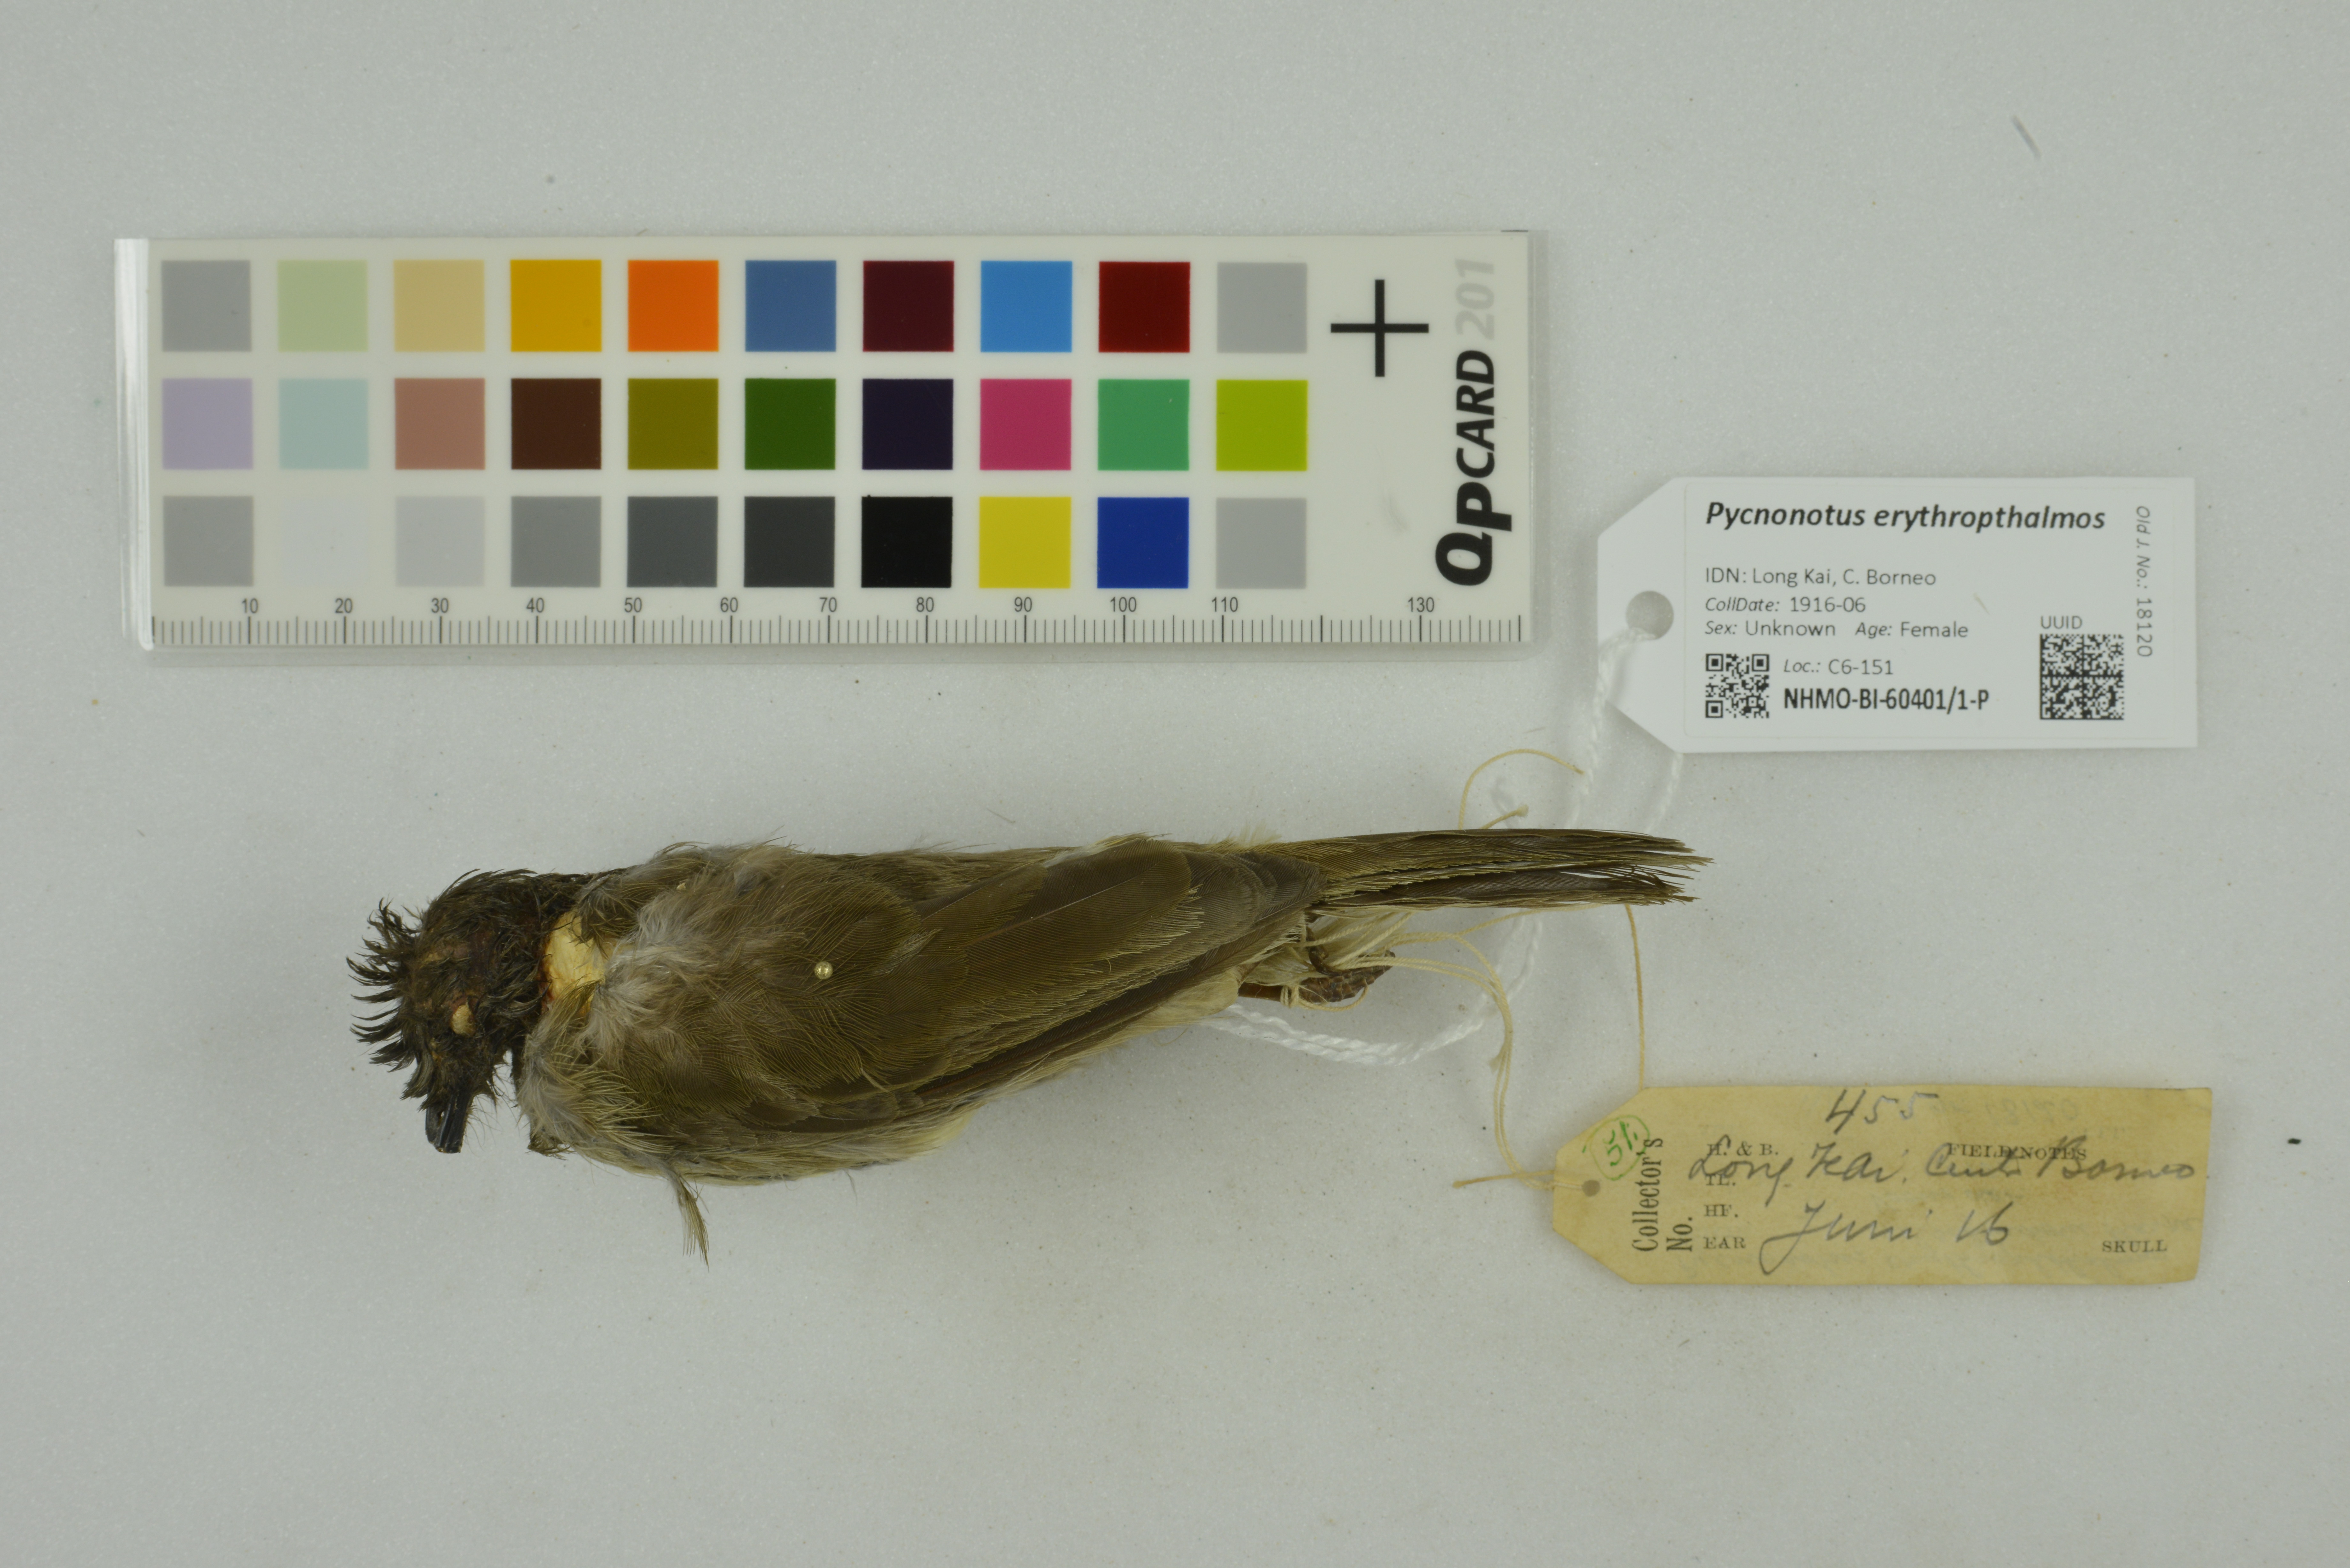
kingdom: Animalia
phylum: Chordata
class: Aves
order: Passeriformes
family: Pycnonotidae
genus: Pycnonotus
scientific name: Pycnonotus erythropthalmos
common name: Spectacled bulbul
